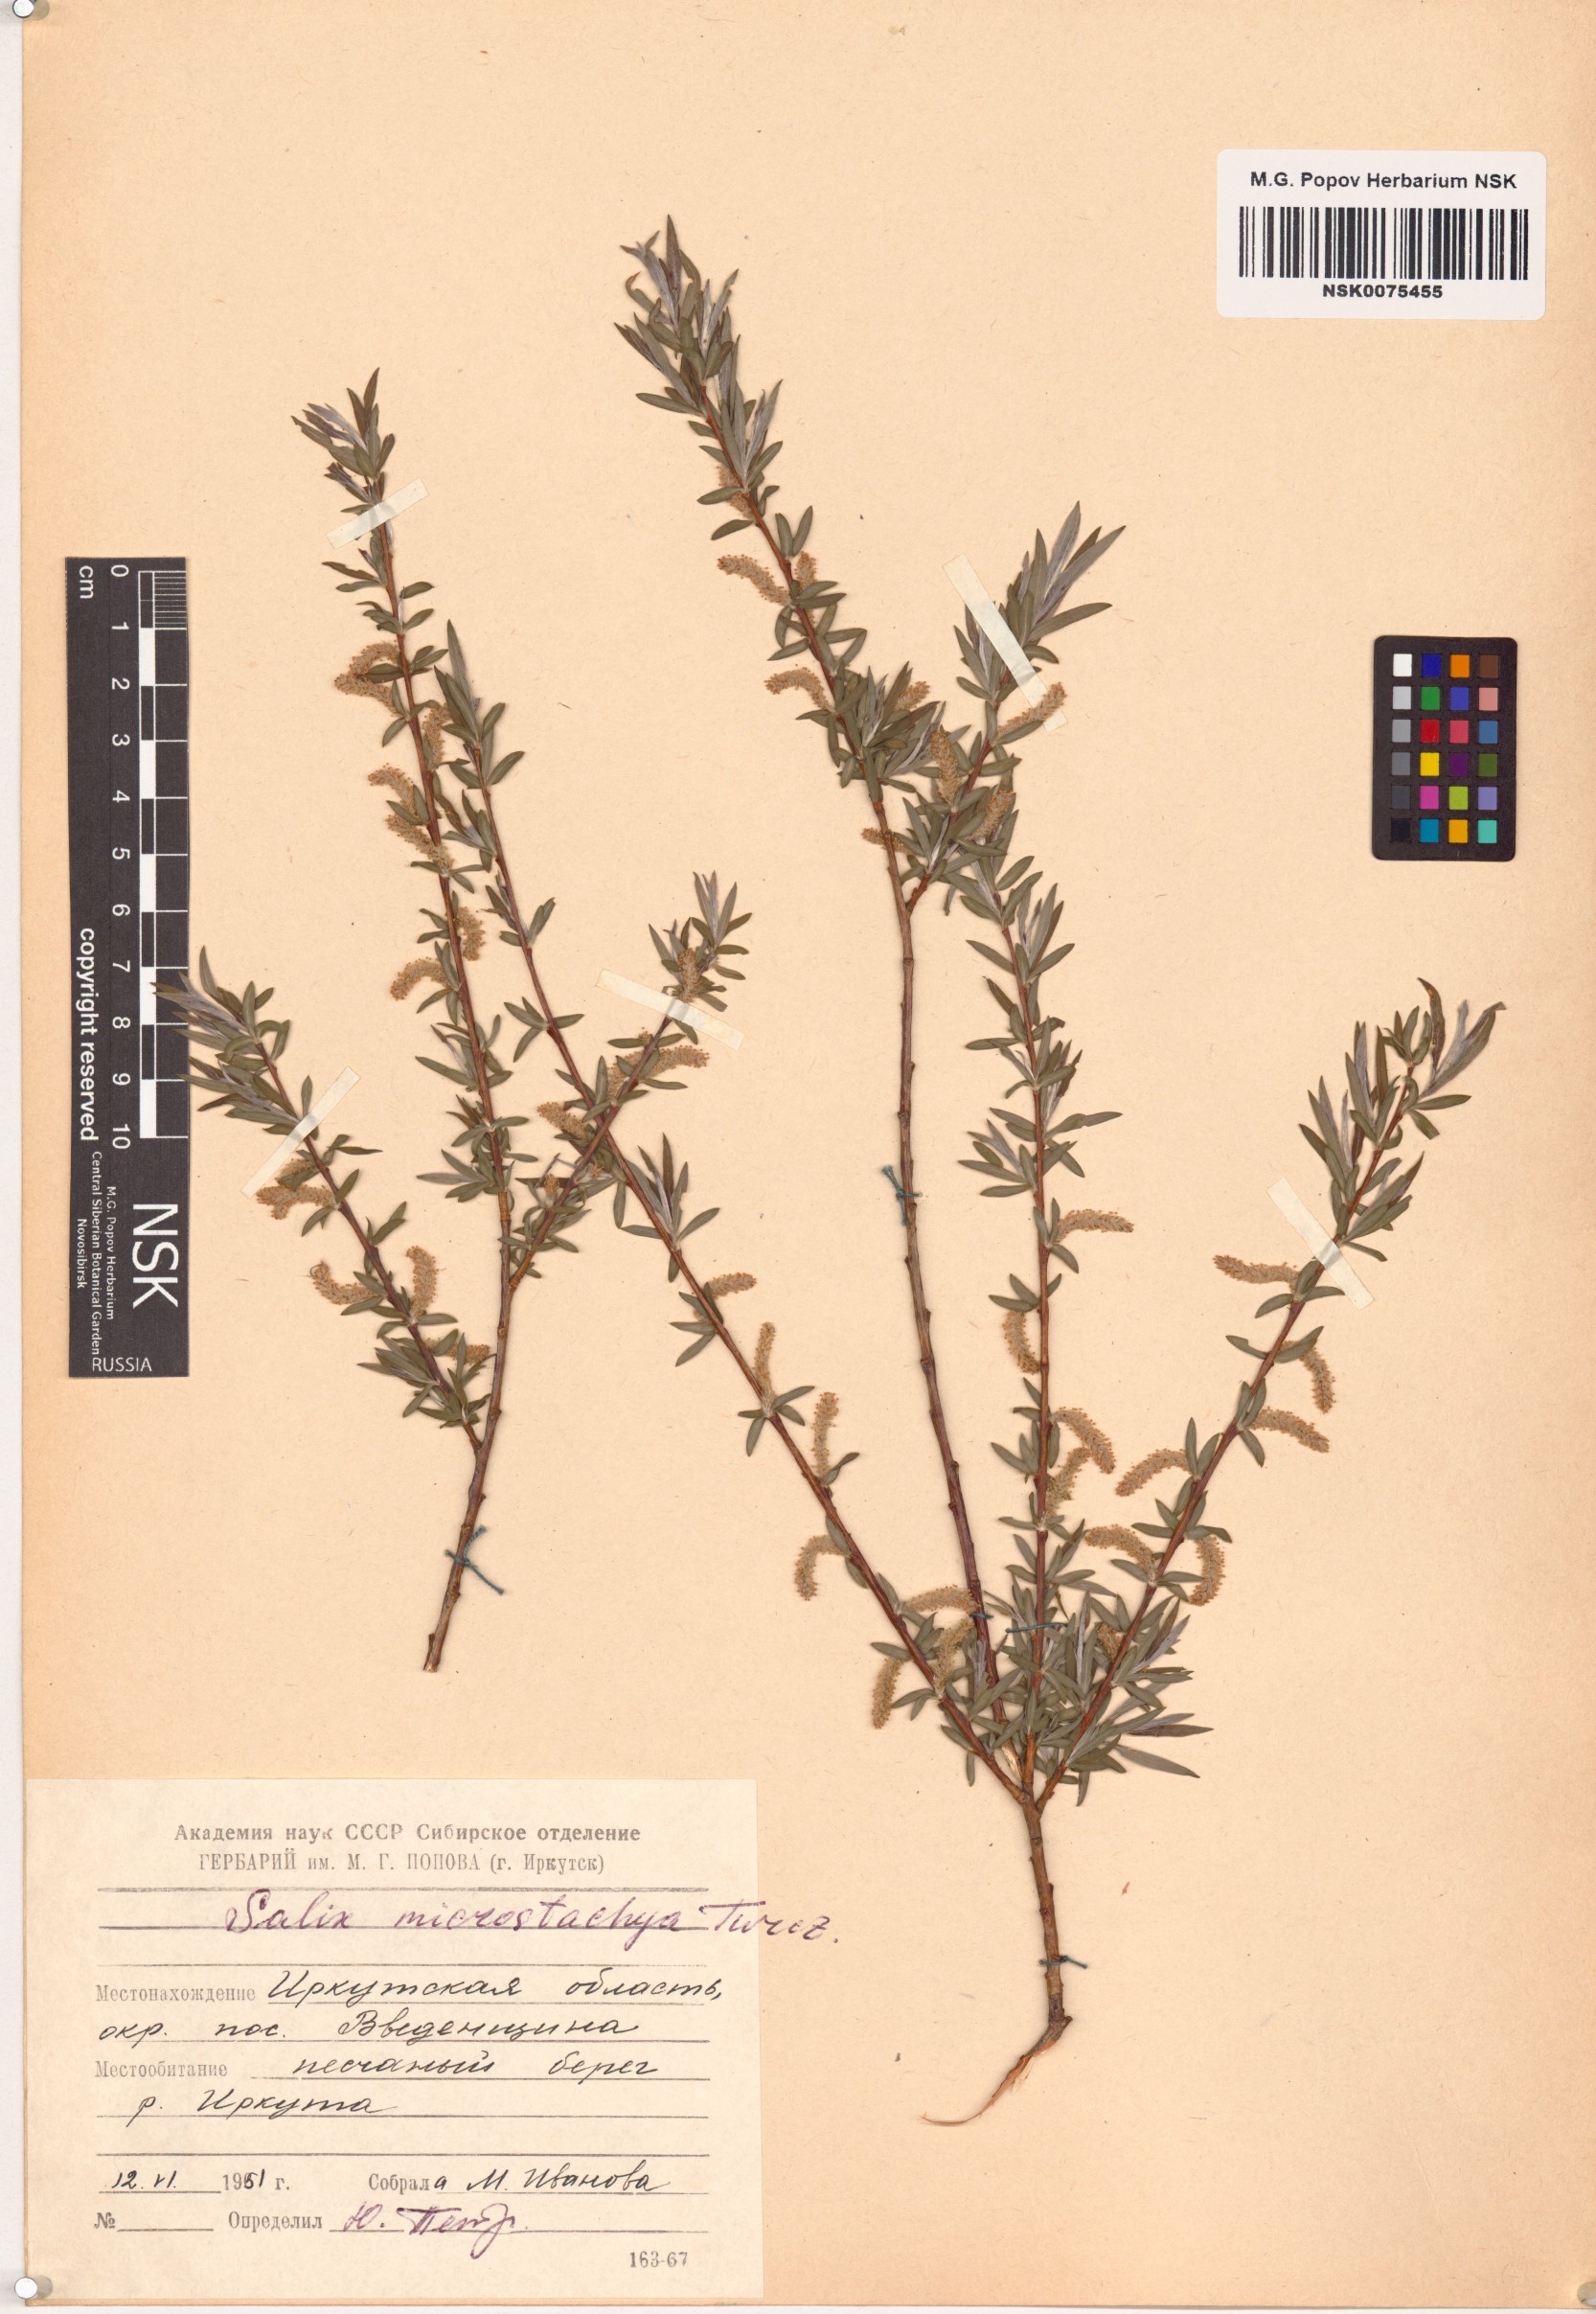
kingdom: Plantae
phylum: Tracheophyta
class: Magnoliopsida
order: Malpighiales
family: Salicaceae
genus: Salix
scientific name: Salix microstachya
